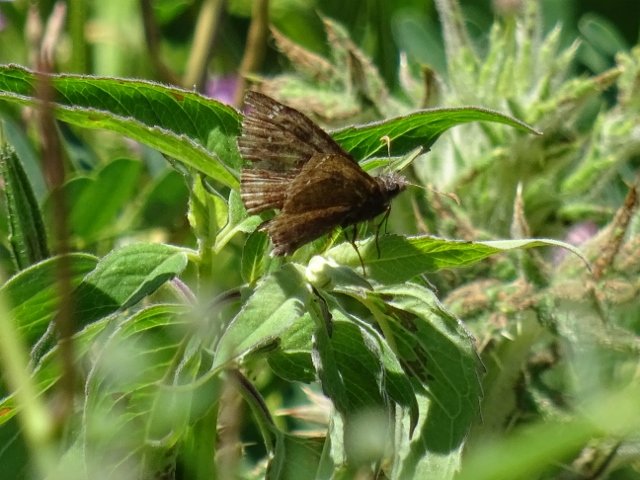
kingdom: Animalia
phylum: Arthropoda
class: Insecta
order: Lepidoptera
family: Hesperiidae
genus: Gesta
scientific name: Gesta
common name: Wild Indigo Duskywing
